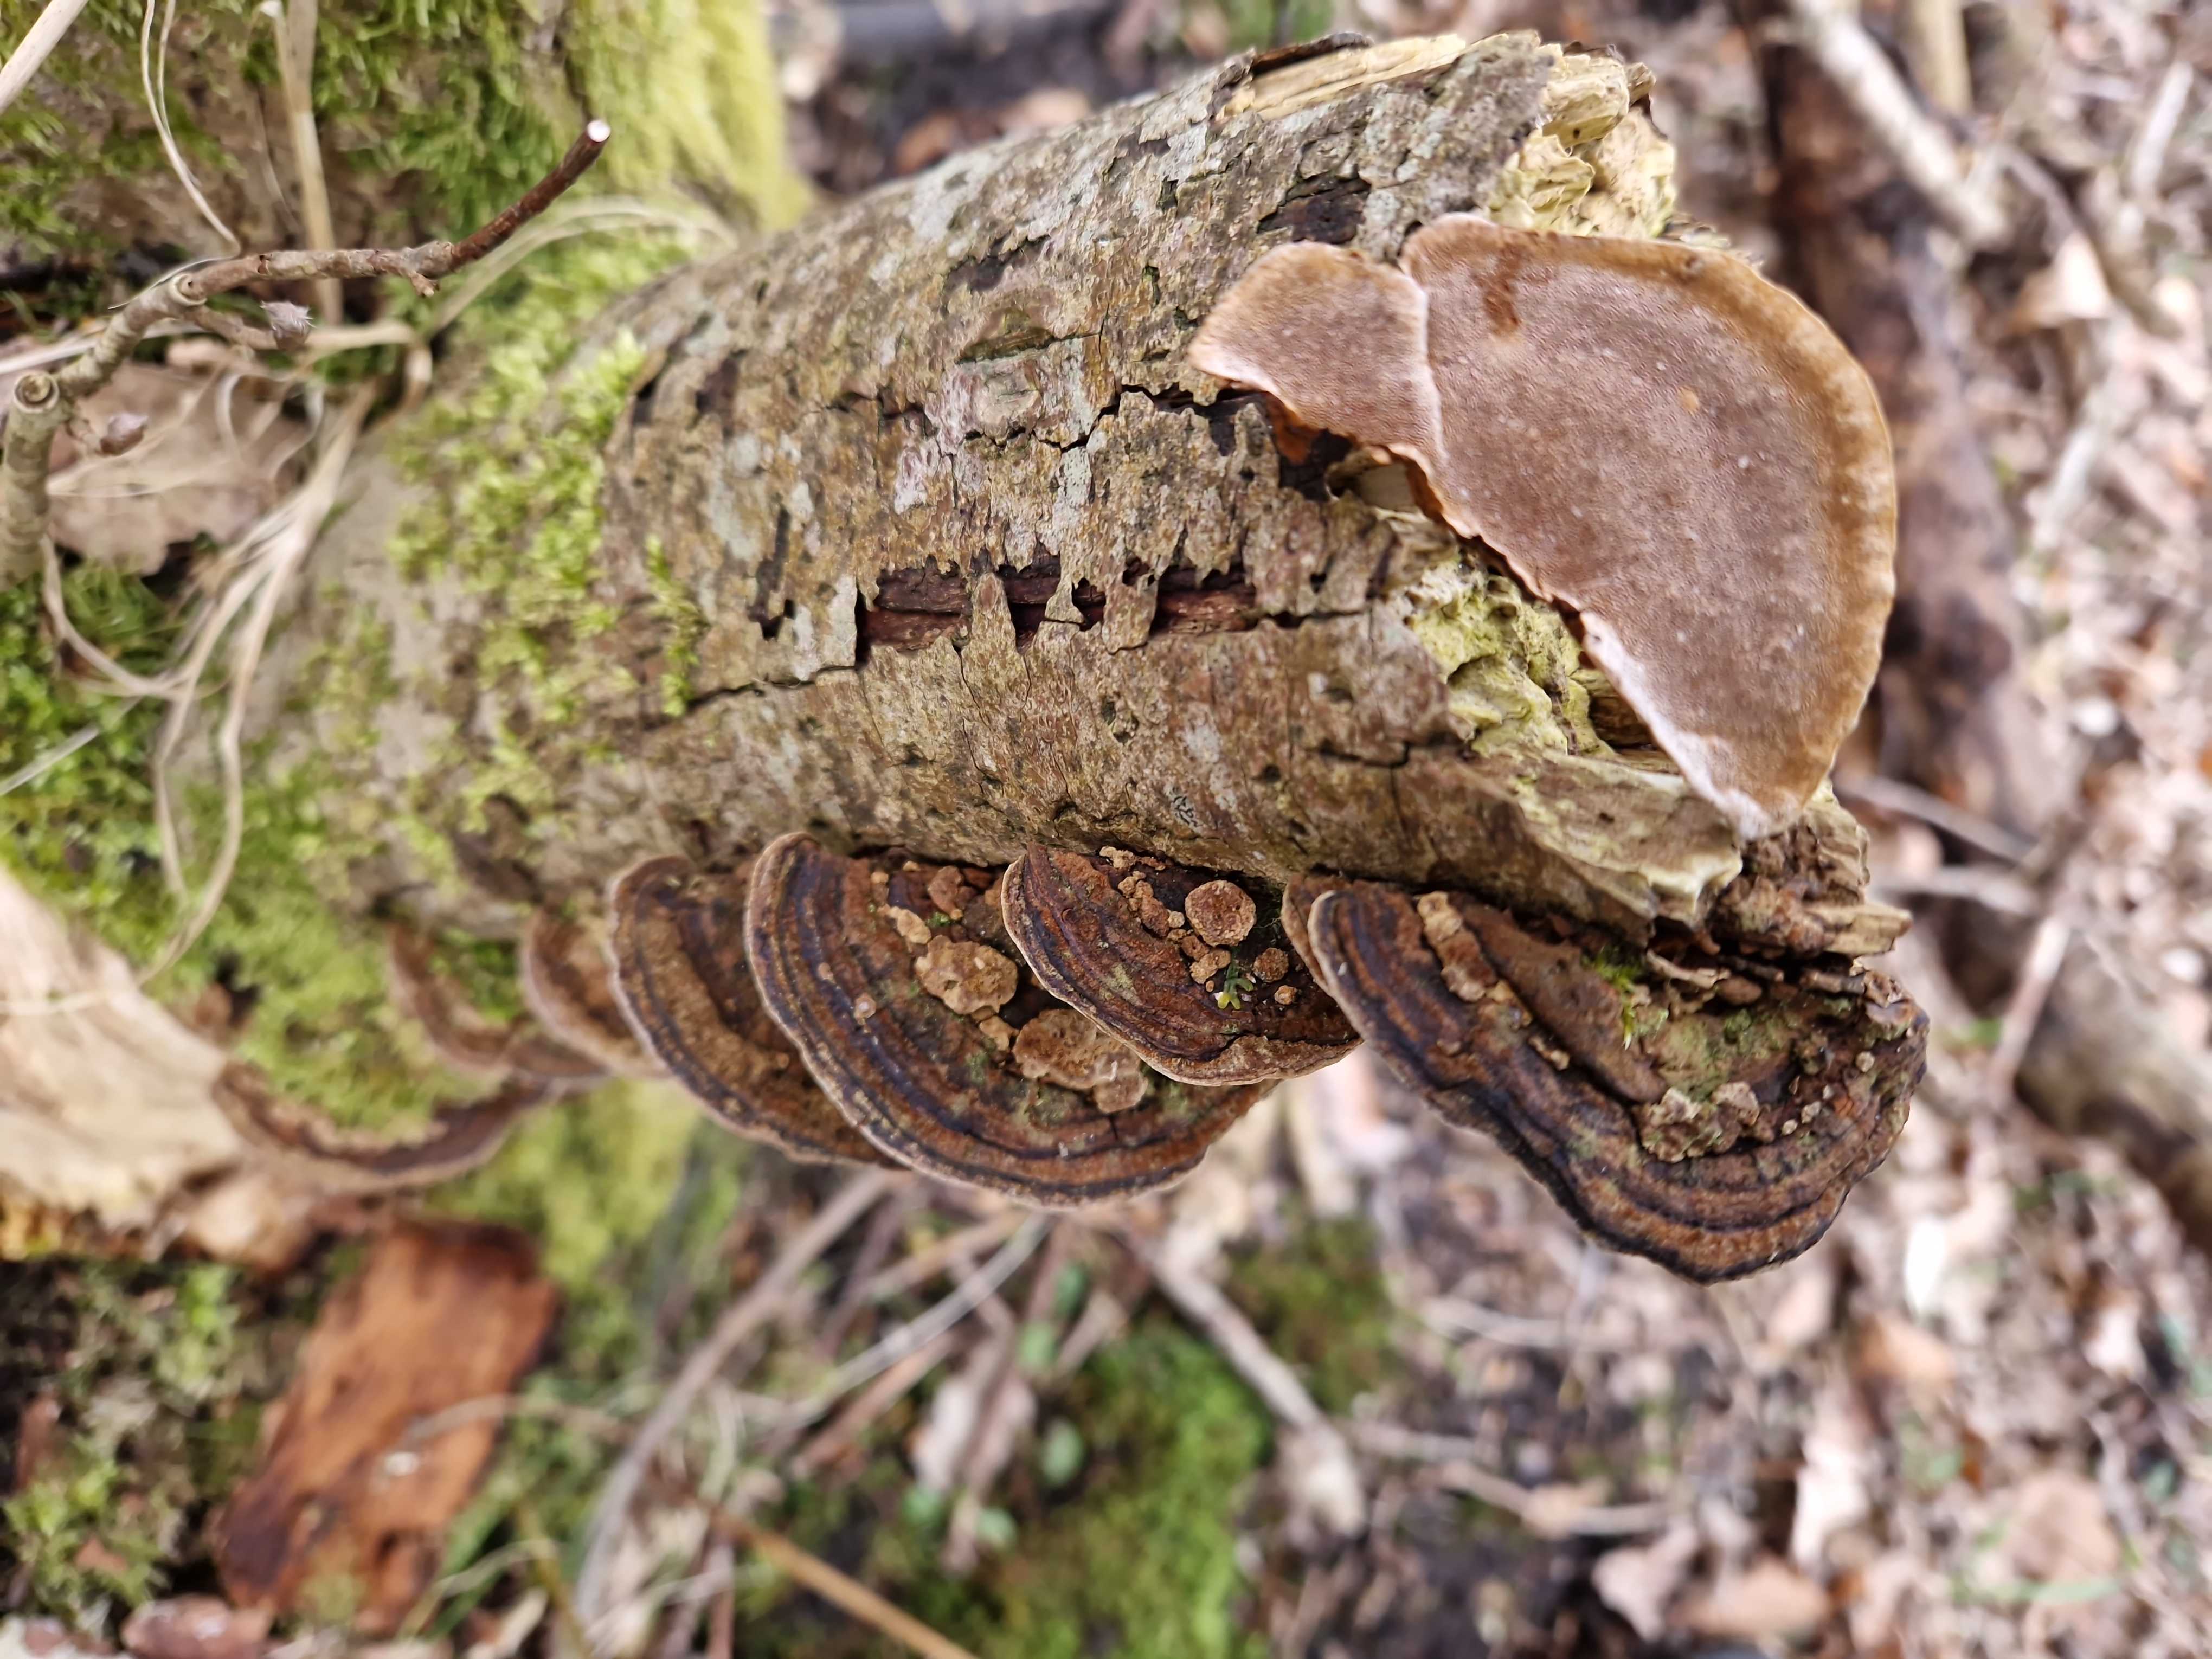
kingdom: Fungi
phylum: Basidiomycota
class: Agaricomycetes
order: Hymenochaetales
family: Hymenochaetaceae
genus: Phellinopsis
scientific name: Phellinopsis conchata
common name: pile-ildporesvamp
